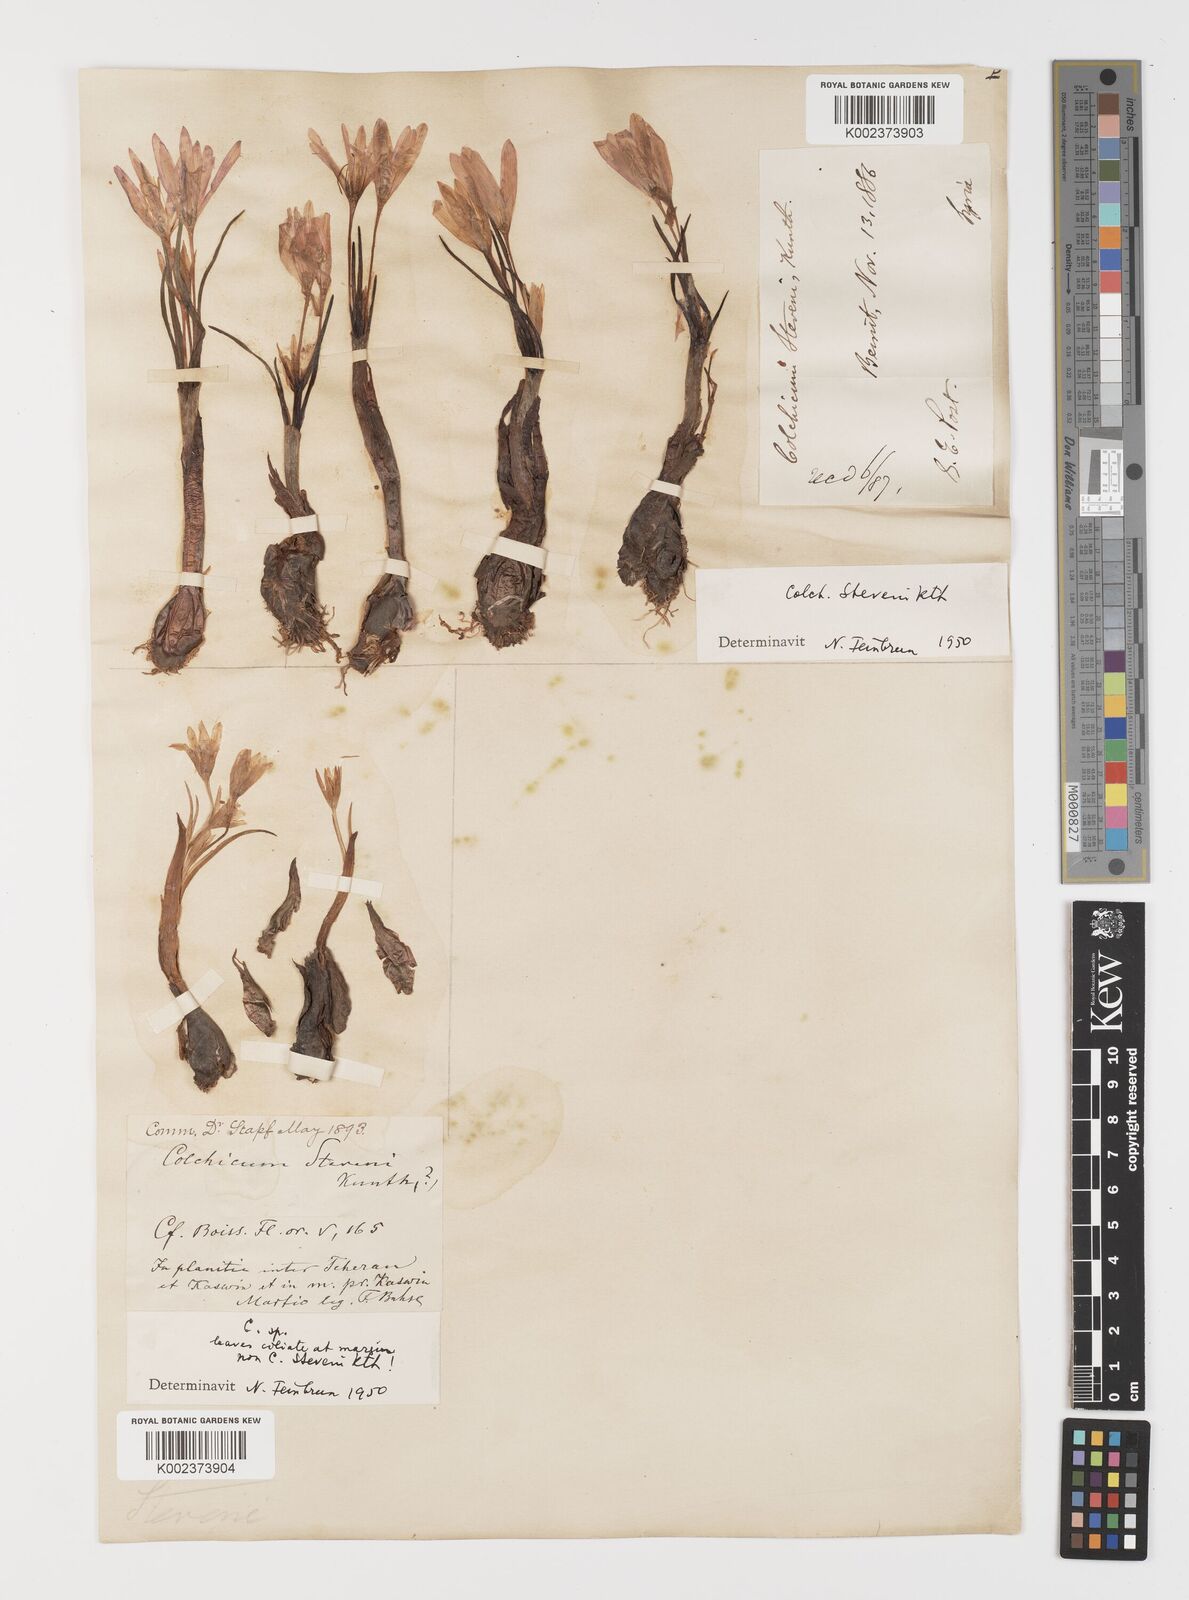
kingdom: Plantae
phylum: Tracheophyta
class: Liliopsida
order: Liliales
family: Colchicaceae
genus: Colchicum
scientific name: Colchicum stevenii
